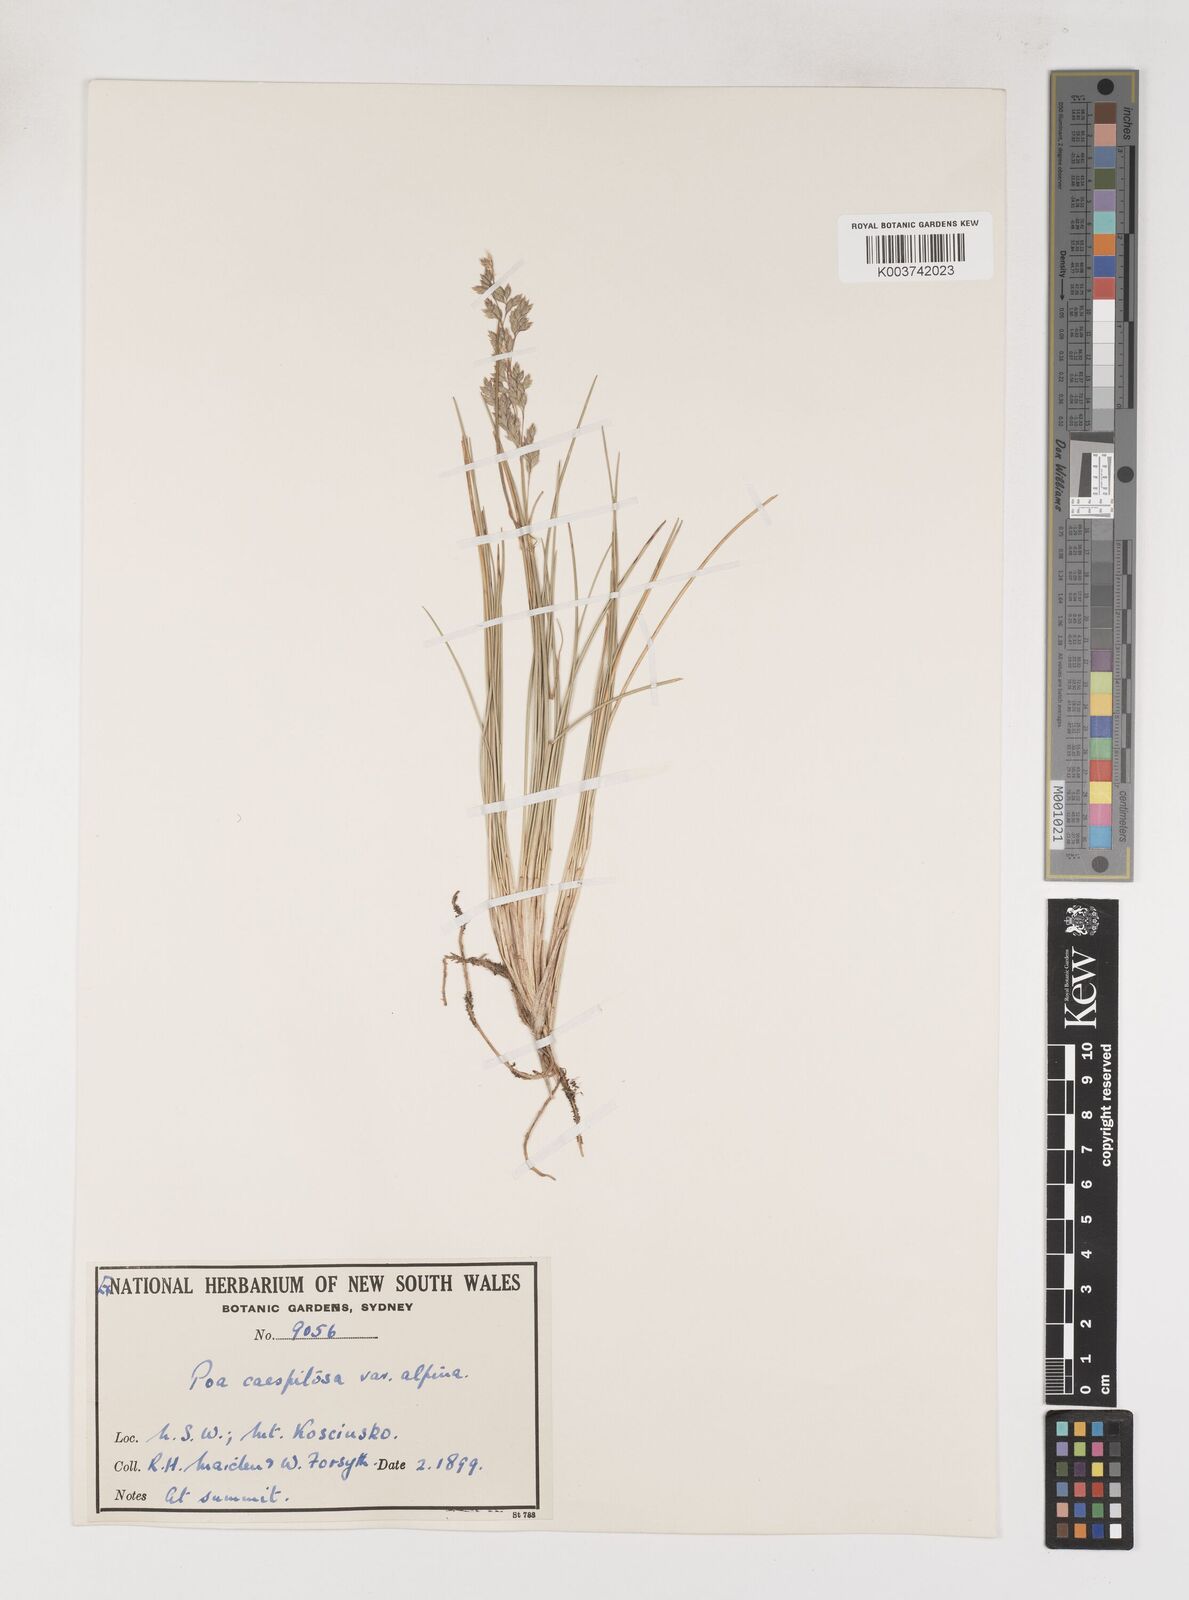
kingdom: Plantae
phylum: Tracheophyta
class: Liliopsida
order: Poales
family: Poaceae
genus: Poa
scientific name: Poa gunnii
